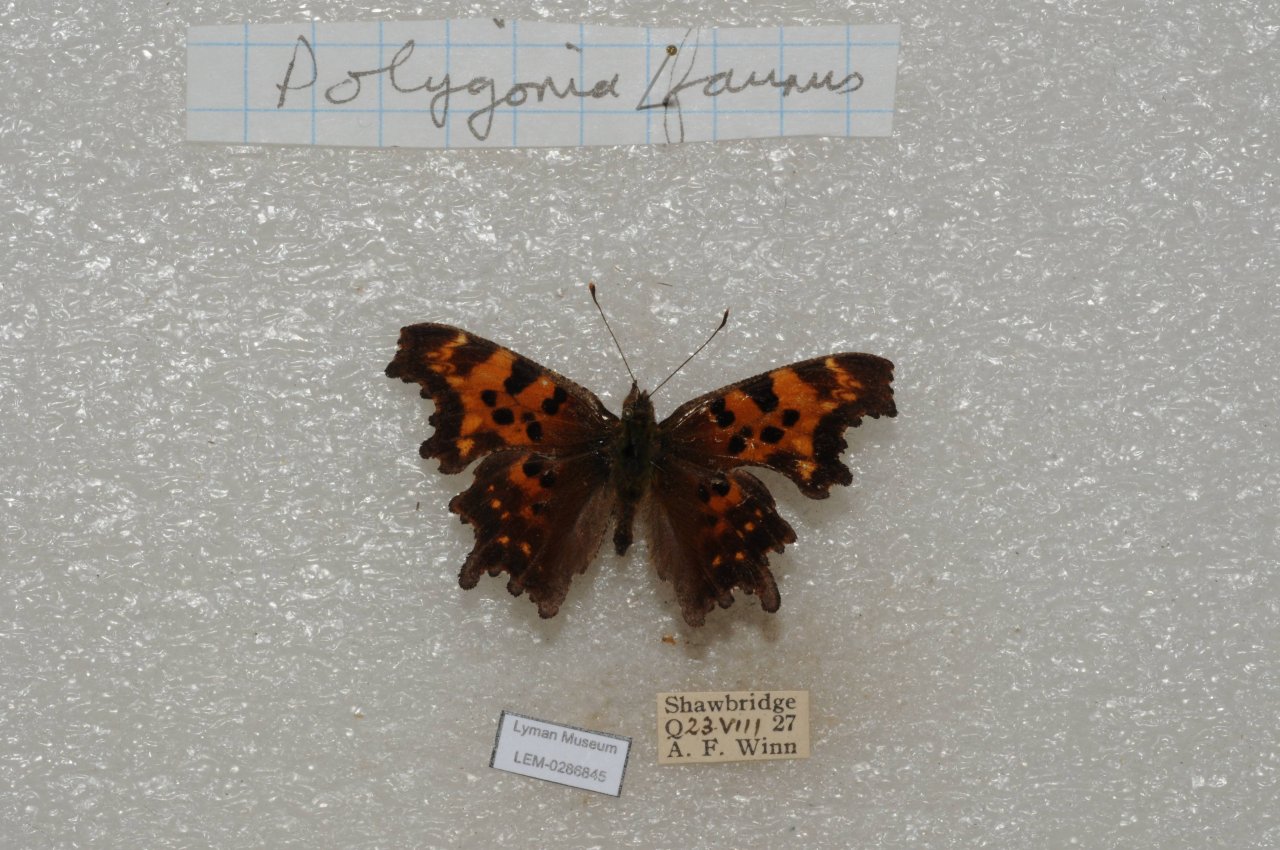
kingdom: Animalia
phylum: Arthropoda
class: Insecta
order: Lepidoptera
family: Nymphalidae
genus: Polygonia
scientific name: Polygonia faunus
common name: Green Comma
